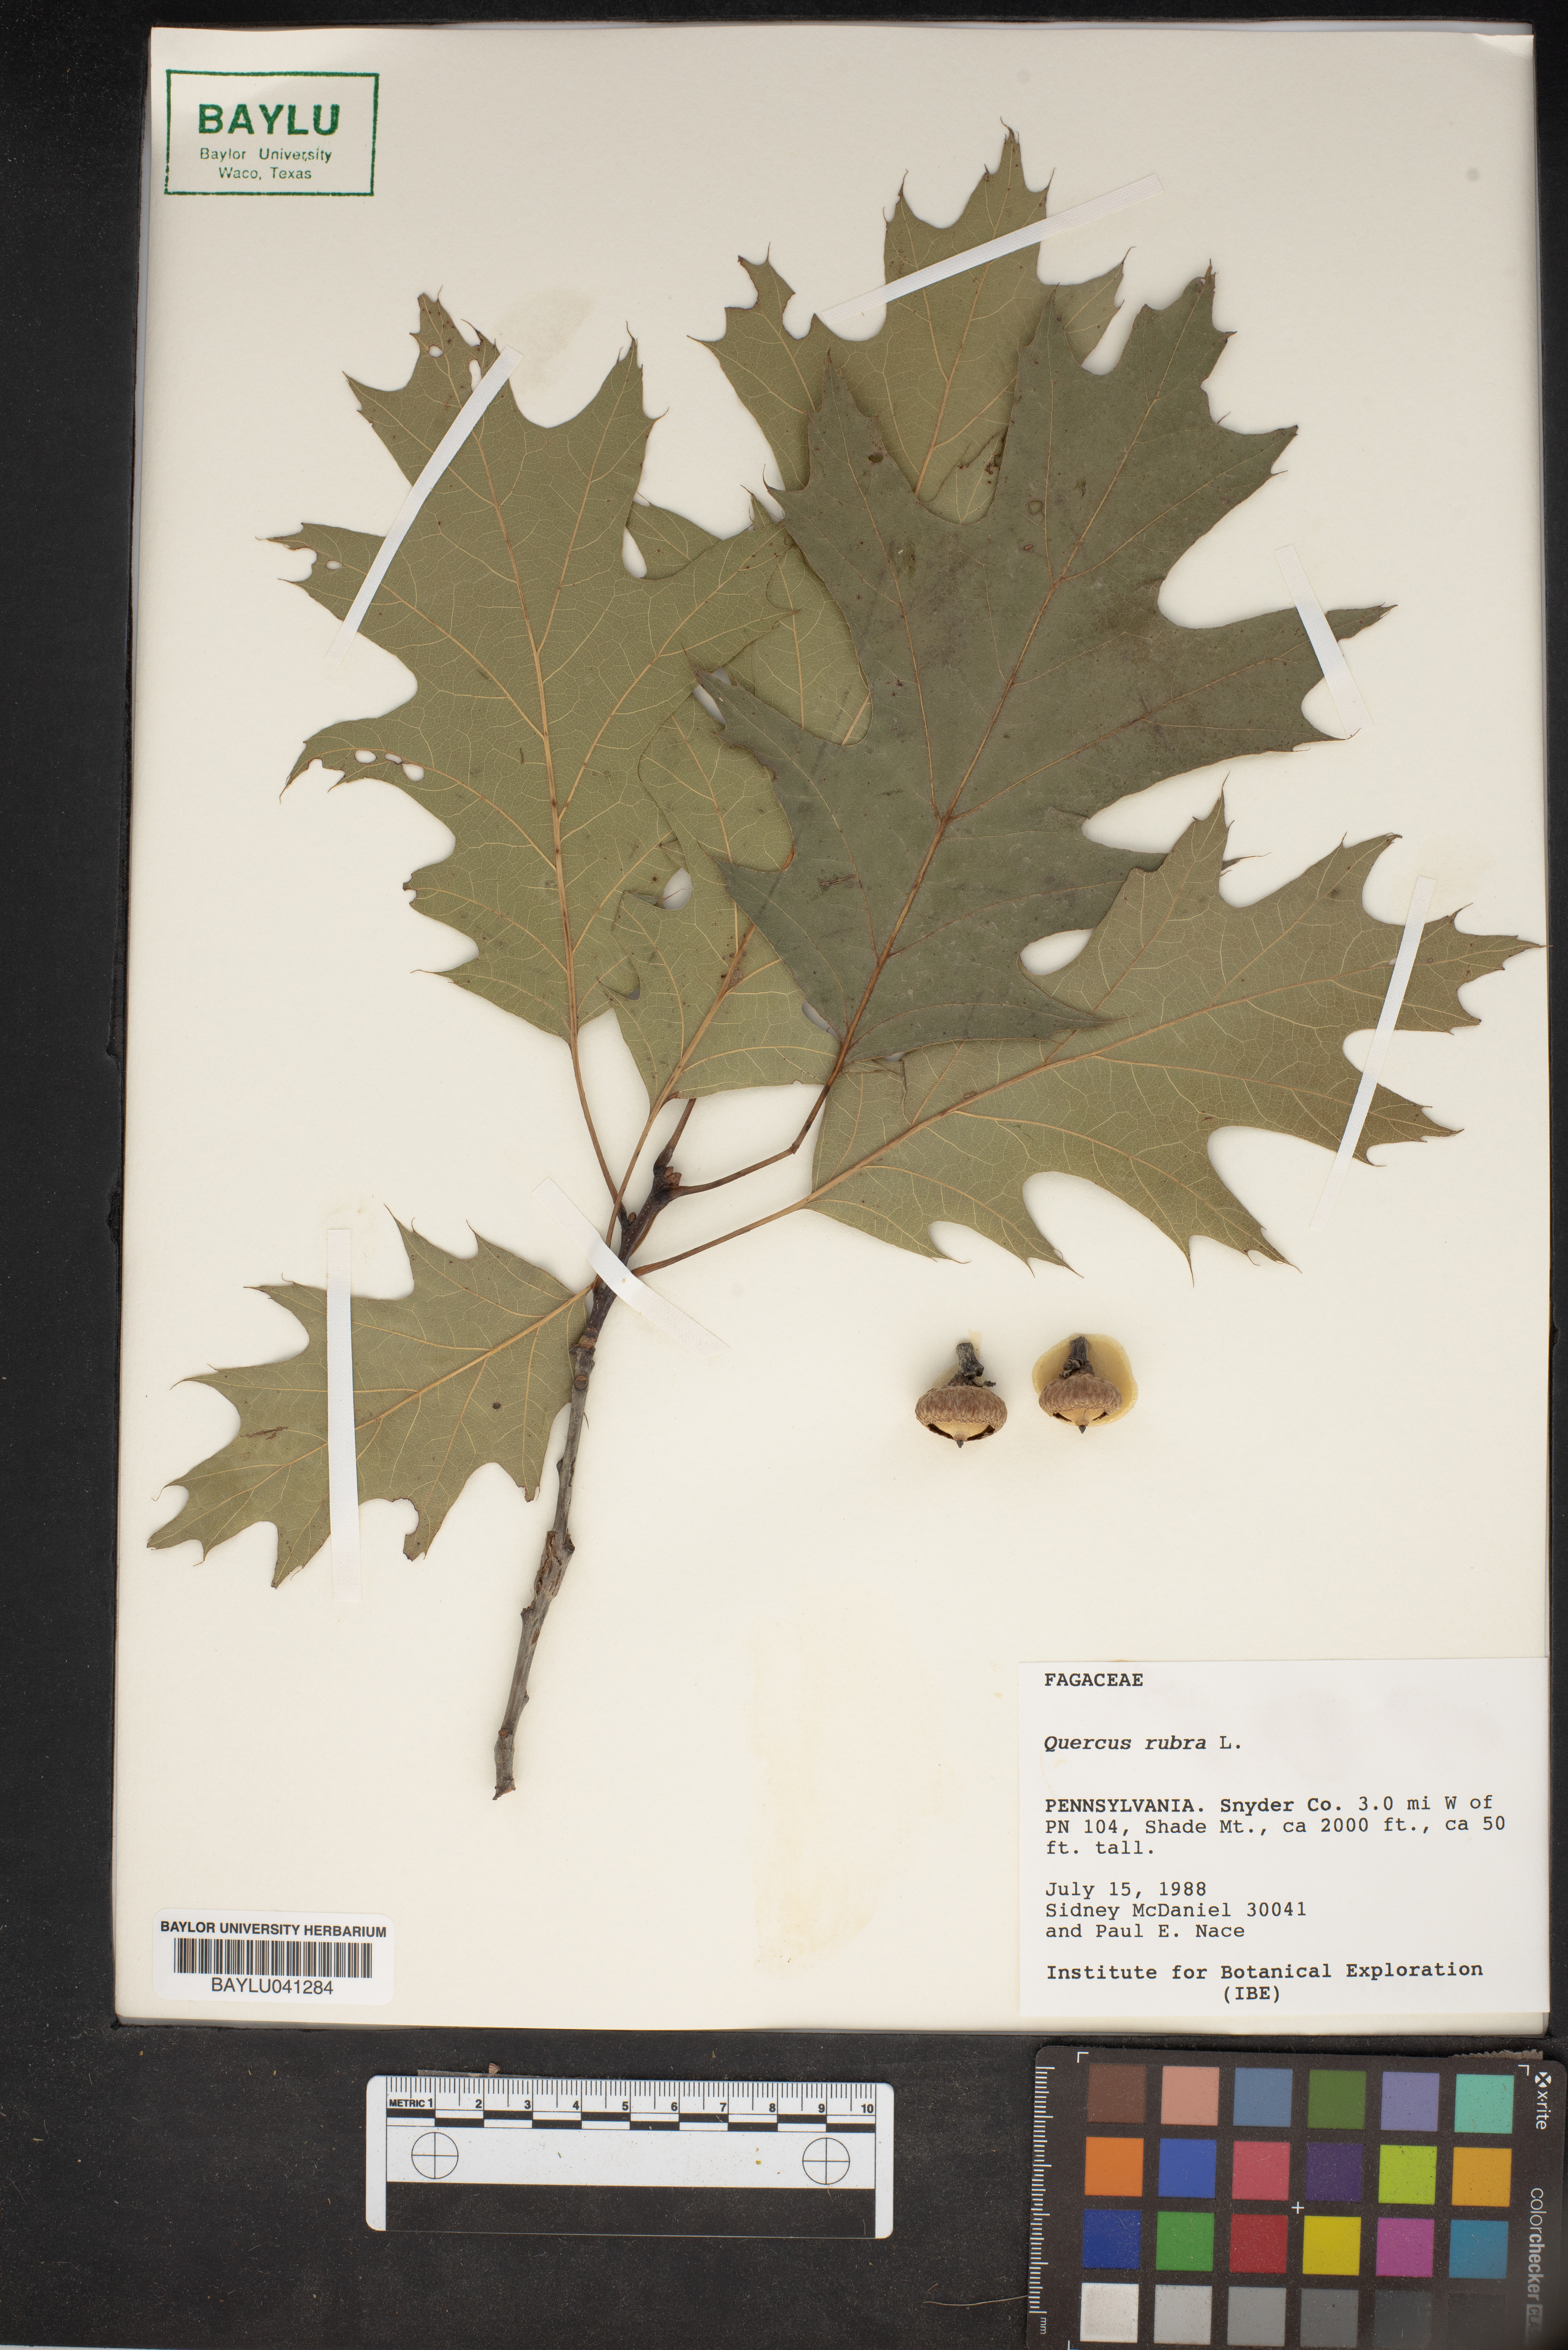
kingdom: Plantae
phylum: Tracheophyta
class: Magnoliopsida
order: Fagales
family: Fagaceae
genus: Quercus
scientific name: Quercus rubra
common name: Red oak
